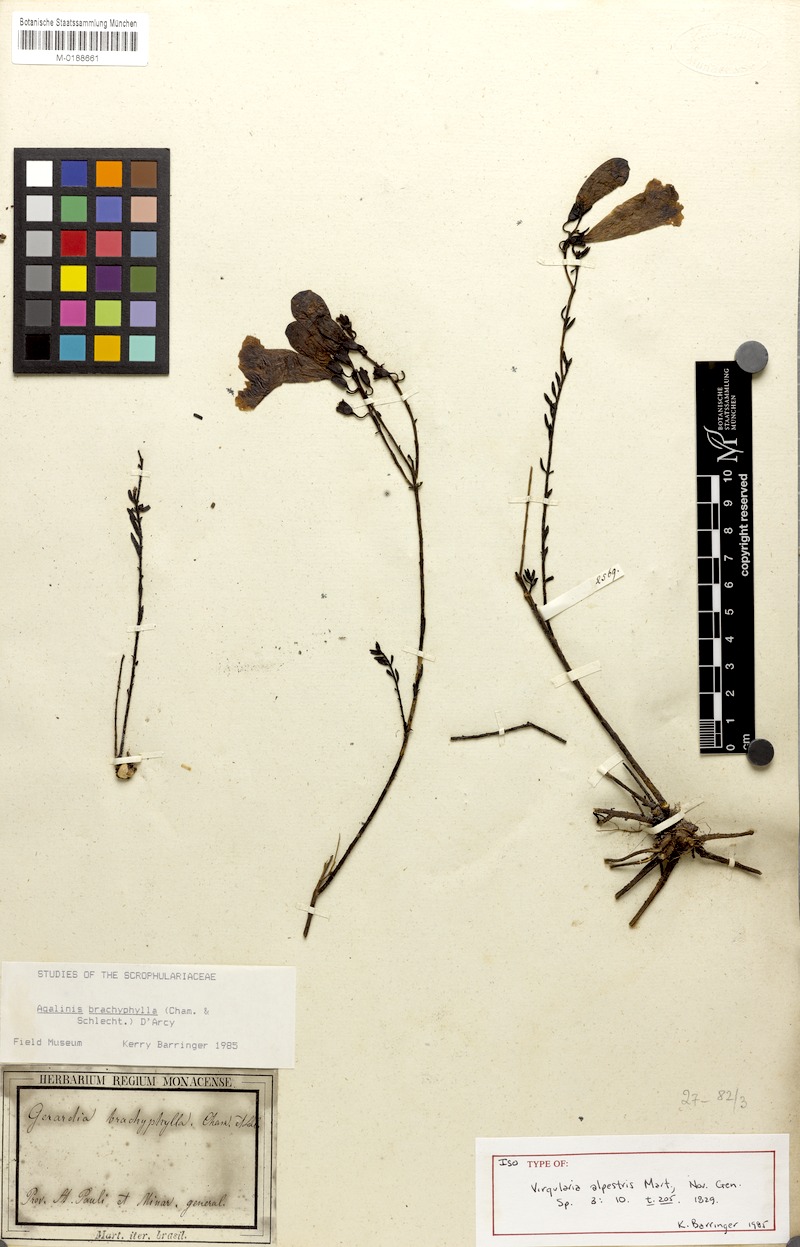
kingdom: Plantae
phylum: Tracheophyta
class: Magnoliopsida
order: Lamiales
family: Orobanchaceae
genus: Agalinis
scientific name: Agalinis brachyphylla
